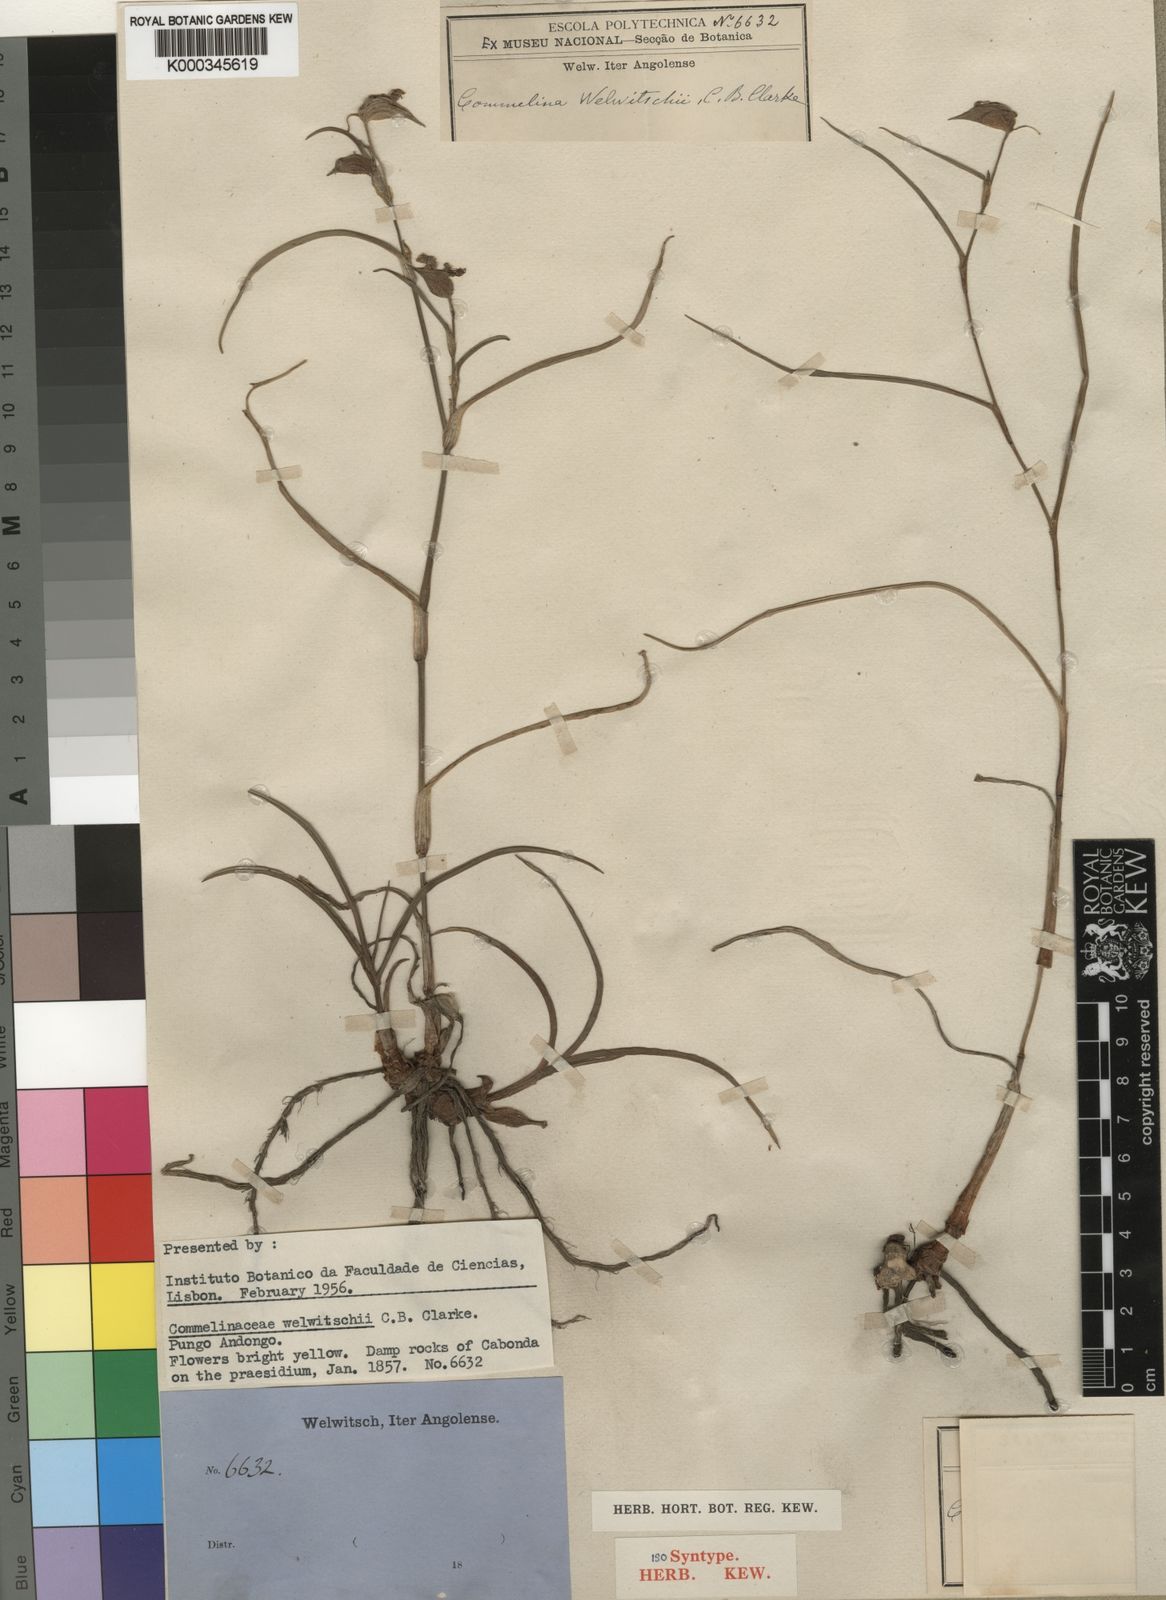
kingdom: Plantae
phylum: Tracheophyta
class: Liliopsida
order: Commelinales
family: Commelinaceae
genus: Commelina
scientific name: Commelina welwitschii
